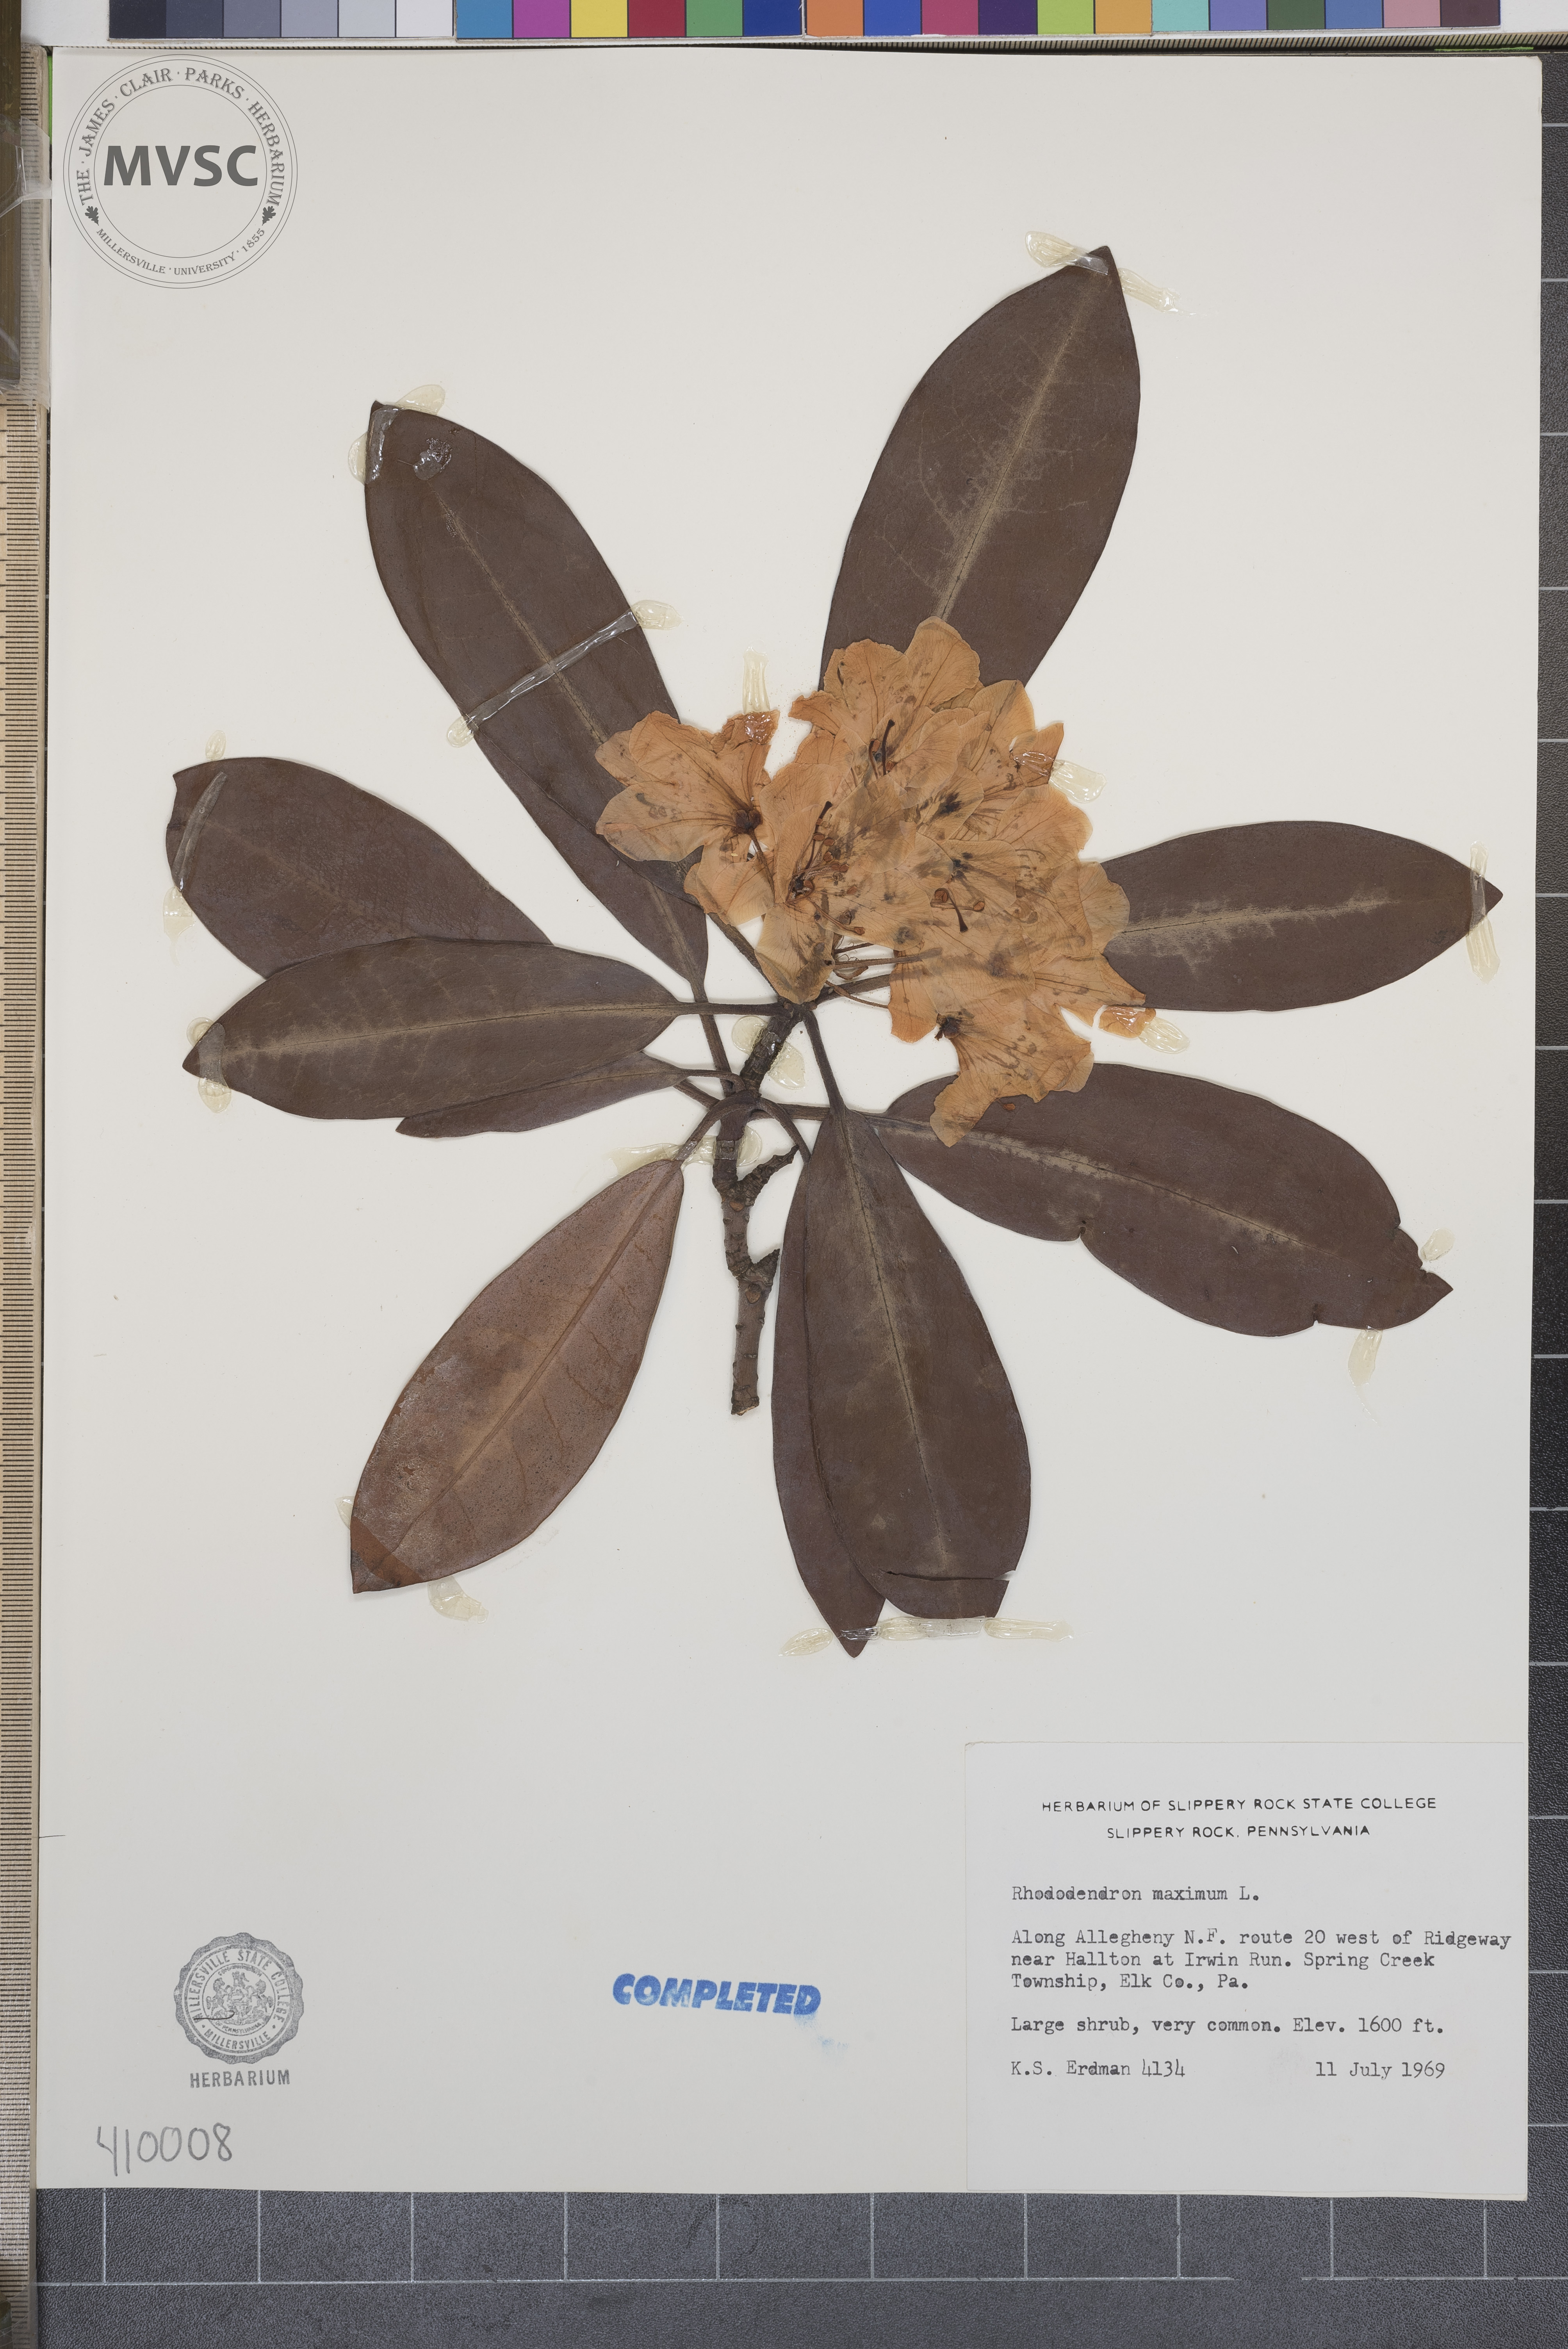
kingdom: Plantae
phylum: Tracheophyta
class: Magnoliopsida
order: Ericales
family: Ericaceae
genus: Rhododendron
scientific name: Rhododendron maximum
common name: Great rhododendron
